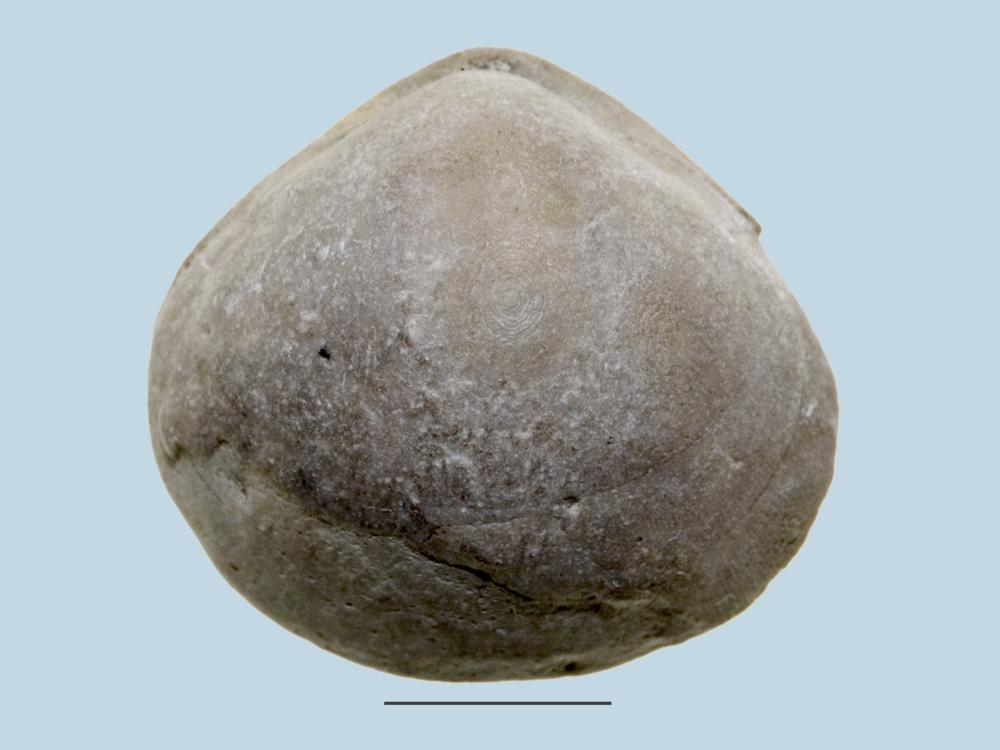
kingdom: Animalia
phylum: Brachiopoda
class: Rhynchonellata
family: Porambonitidae
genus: Porambonites
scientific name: Porambonites
